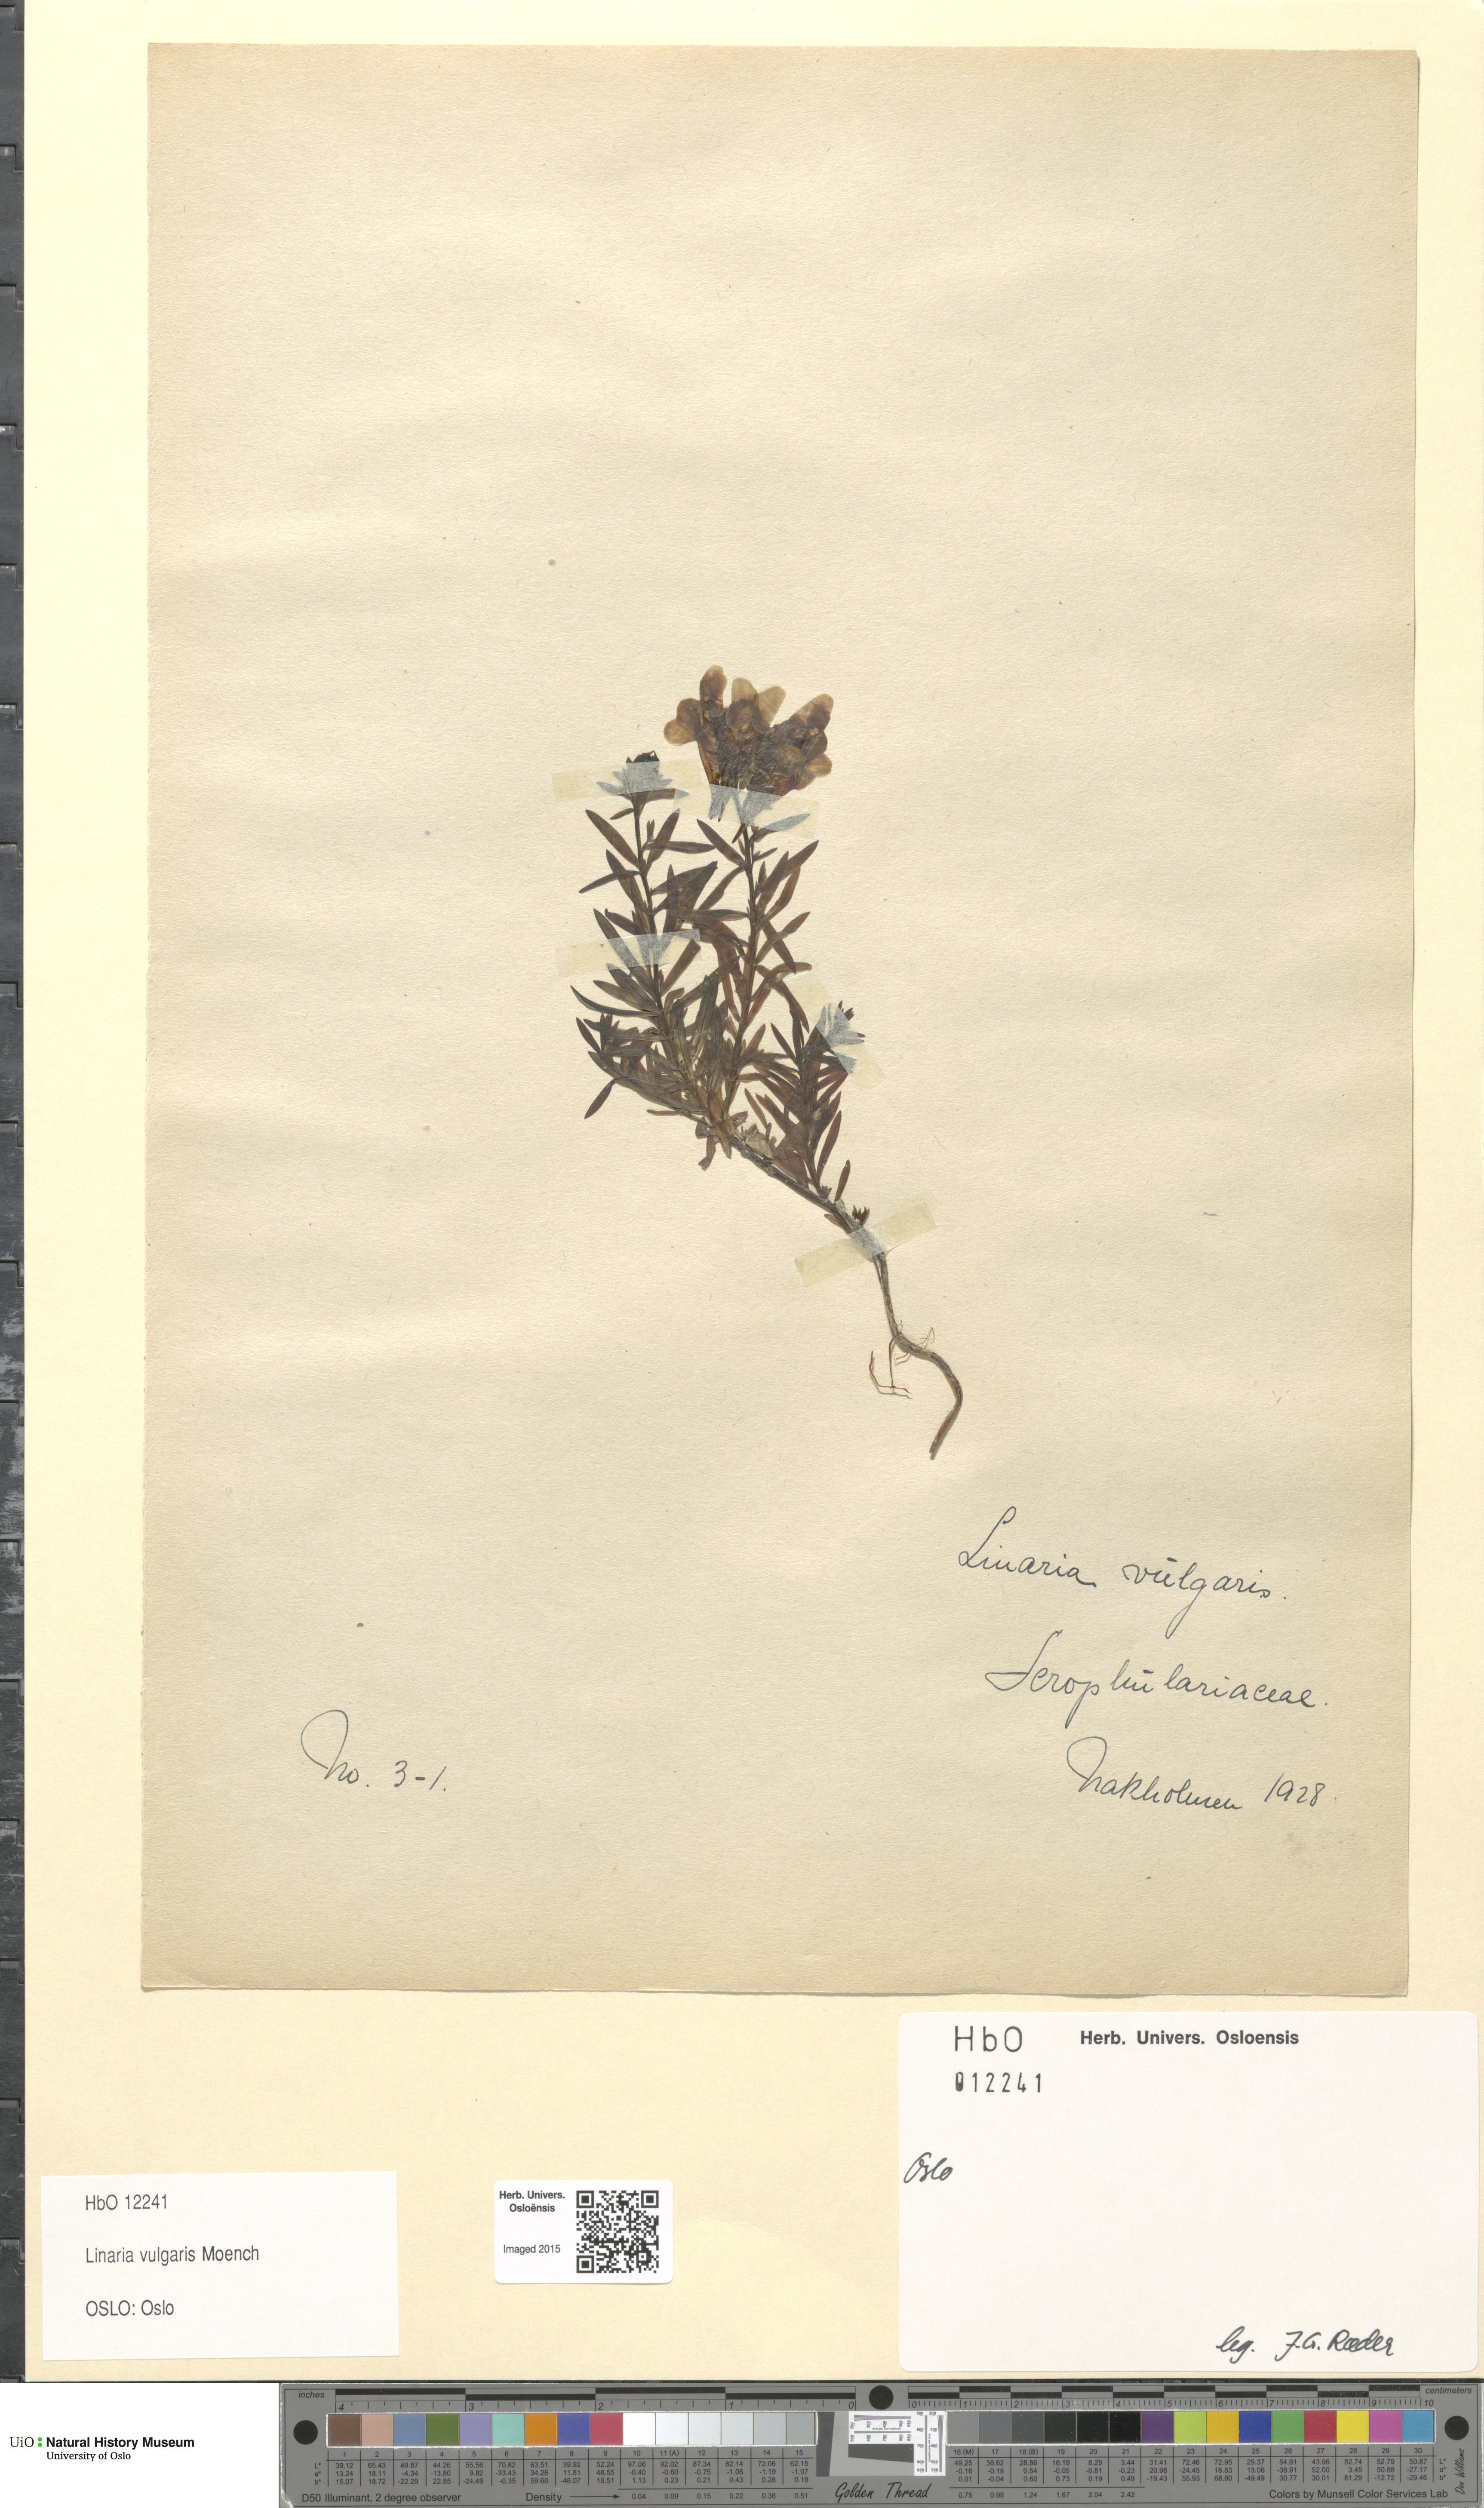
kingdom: Plantae
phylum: Tracheophyta
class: Magnoliopsida
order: Lamiales
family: Plantaginaceae
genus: Linaria
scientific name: Linaria vulgaris
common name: Butter and eggs
